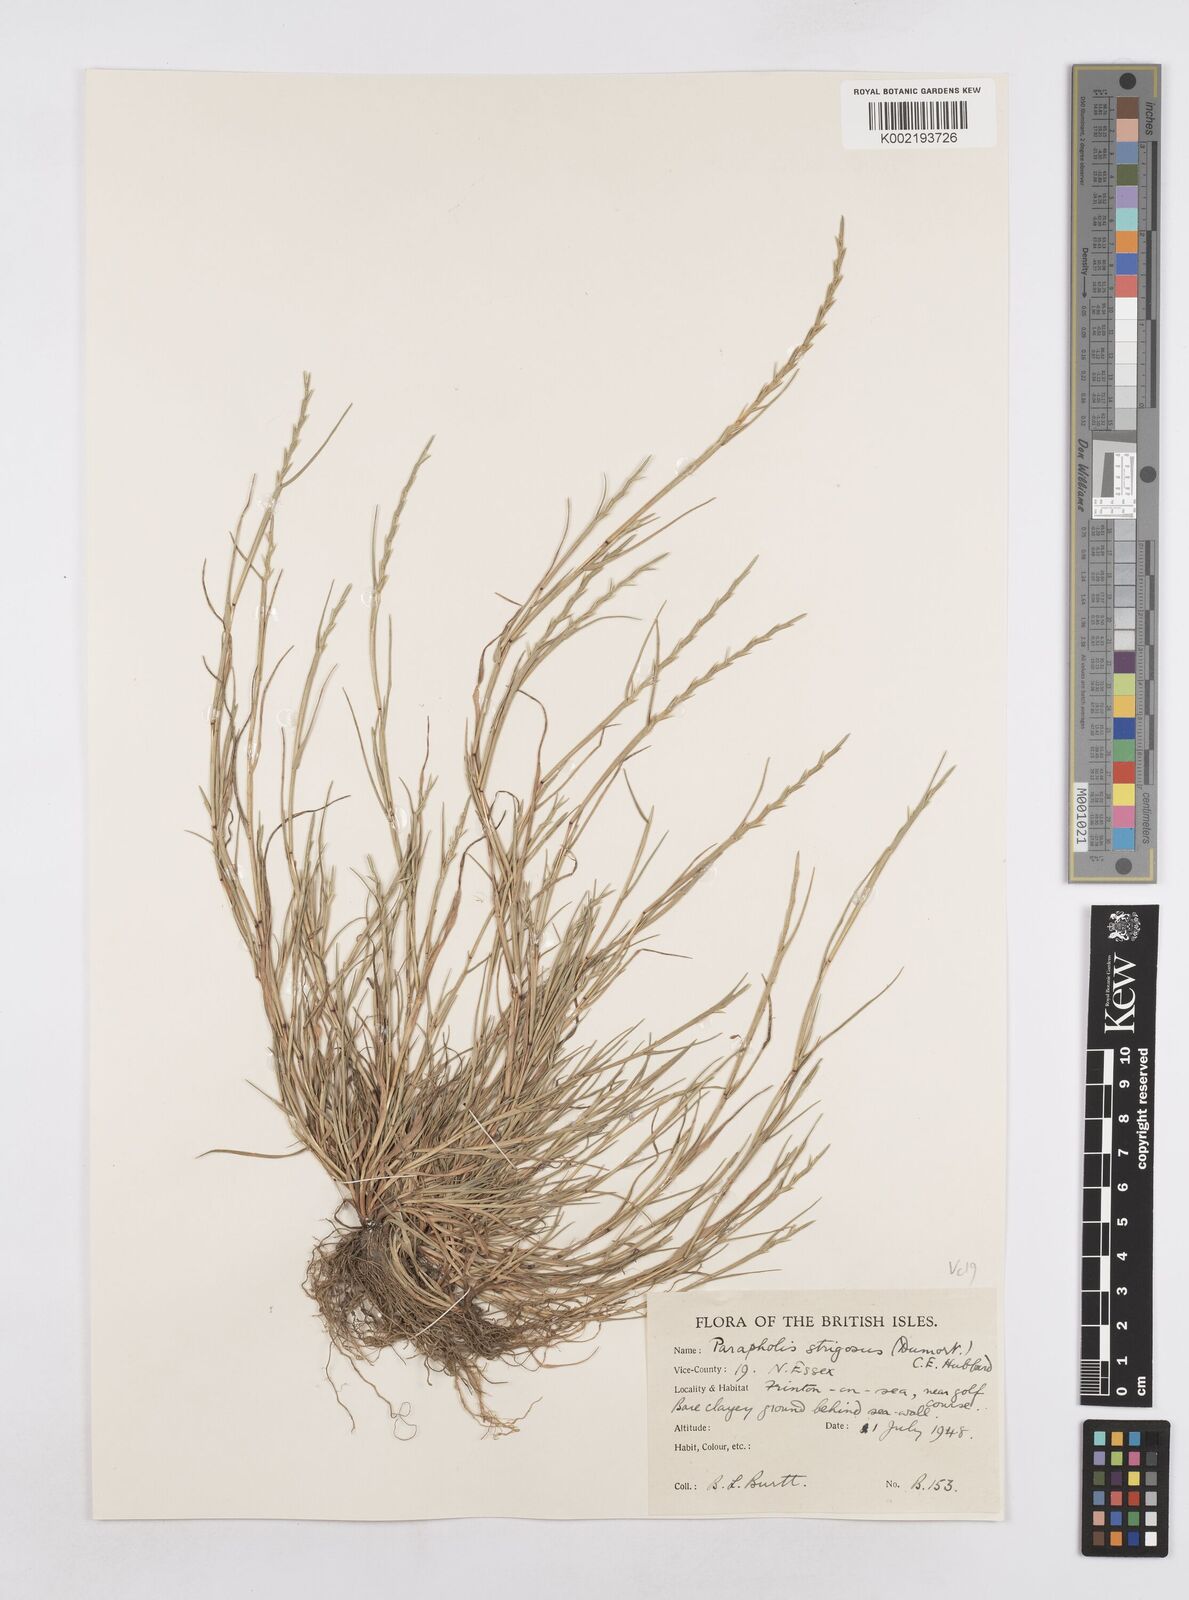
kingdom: Plantae
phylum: Tracheophyta
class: Liliopsida
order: Poales
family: Poaceae
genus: Parapholis
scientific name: Parapholis strigosa
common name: Hard-grass
